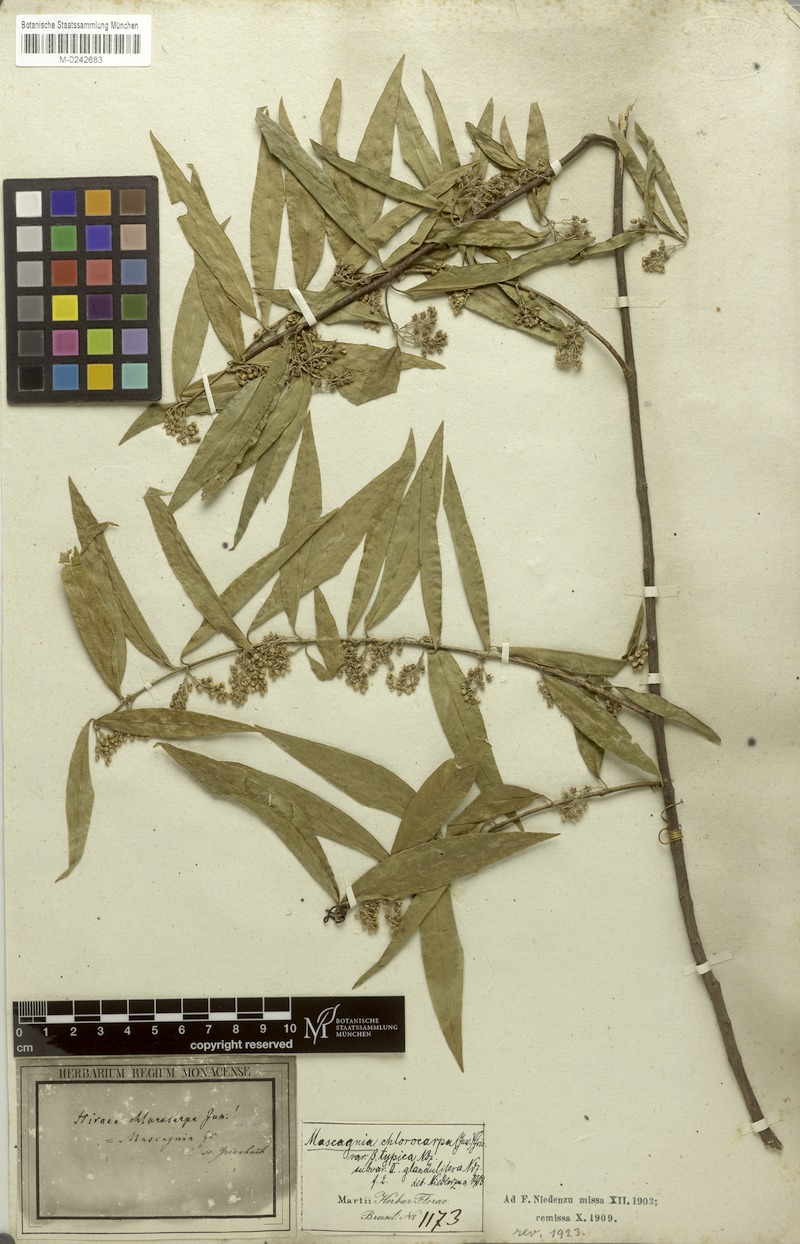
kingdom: Plantae
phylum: Tracheophyta
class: Magnoliopsida
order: Malpighiales
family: Malpighiaceae
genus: Carolus
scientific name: Carolus chlorocarpus
